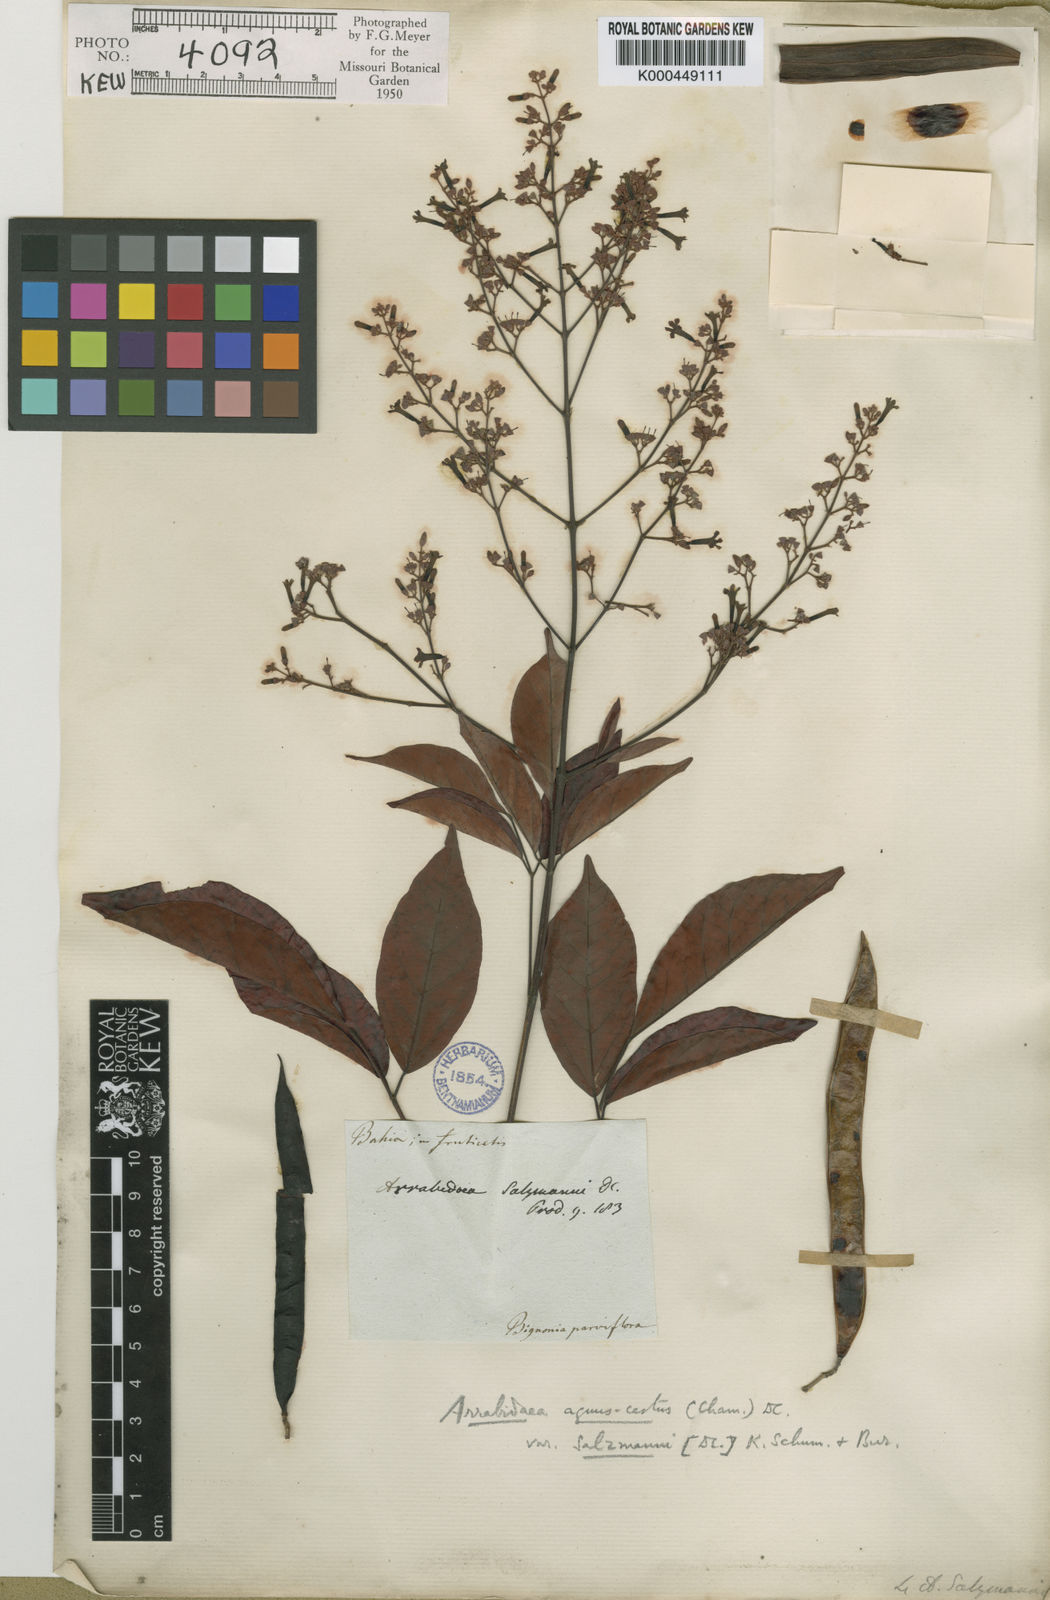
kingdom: Plantae
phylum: Tracheophyta
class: Magnoliopsida
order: Lamiales
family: Bignoniaceae
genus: Fridericia
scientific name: Fridericia rego
